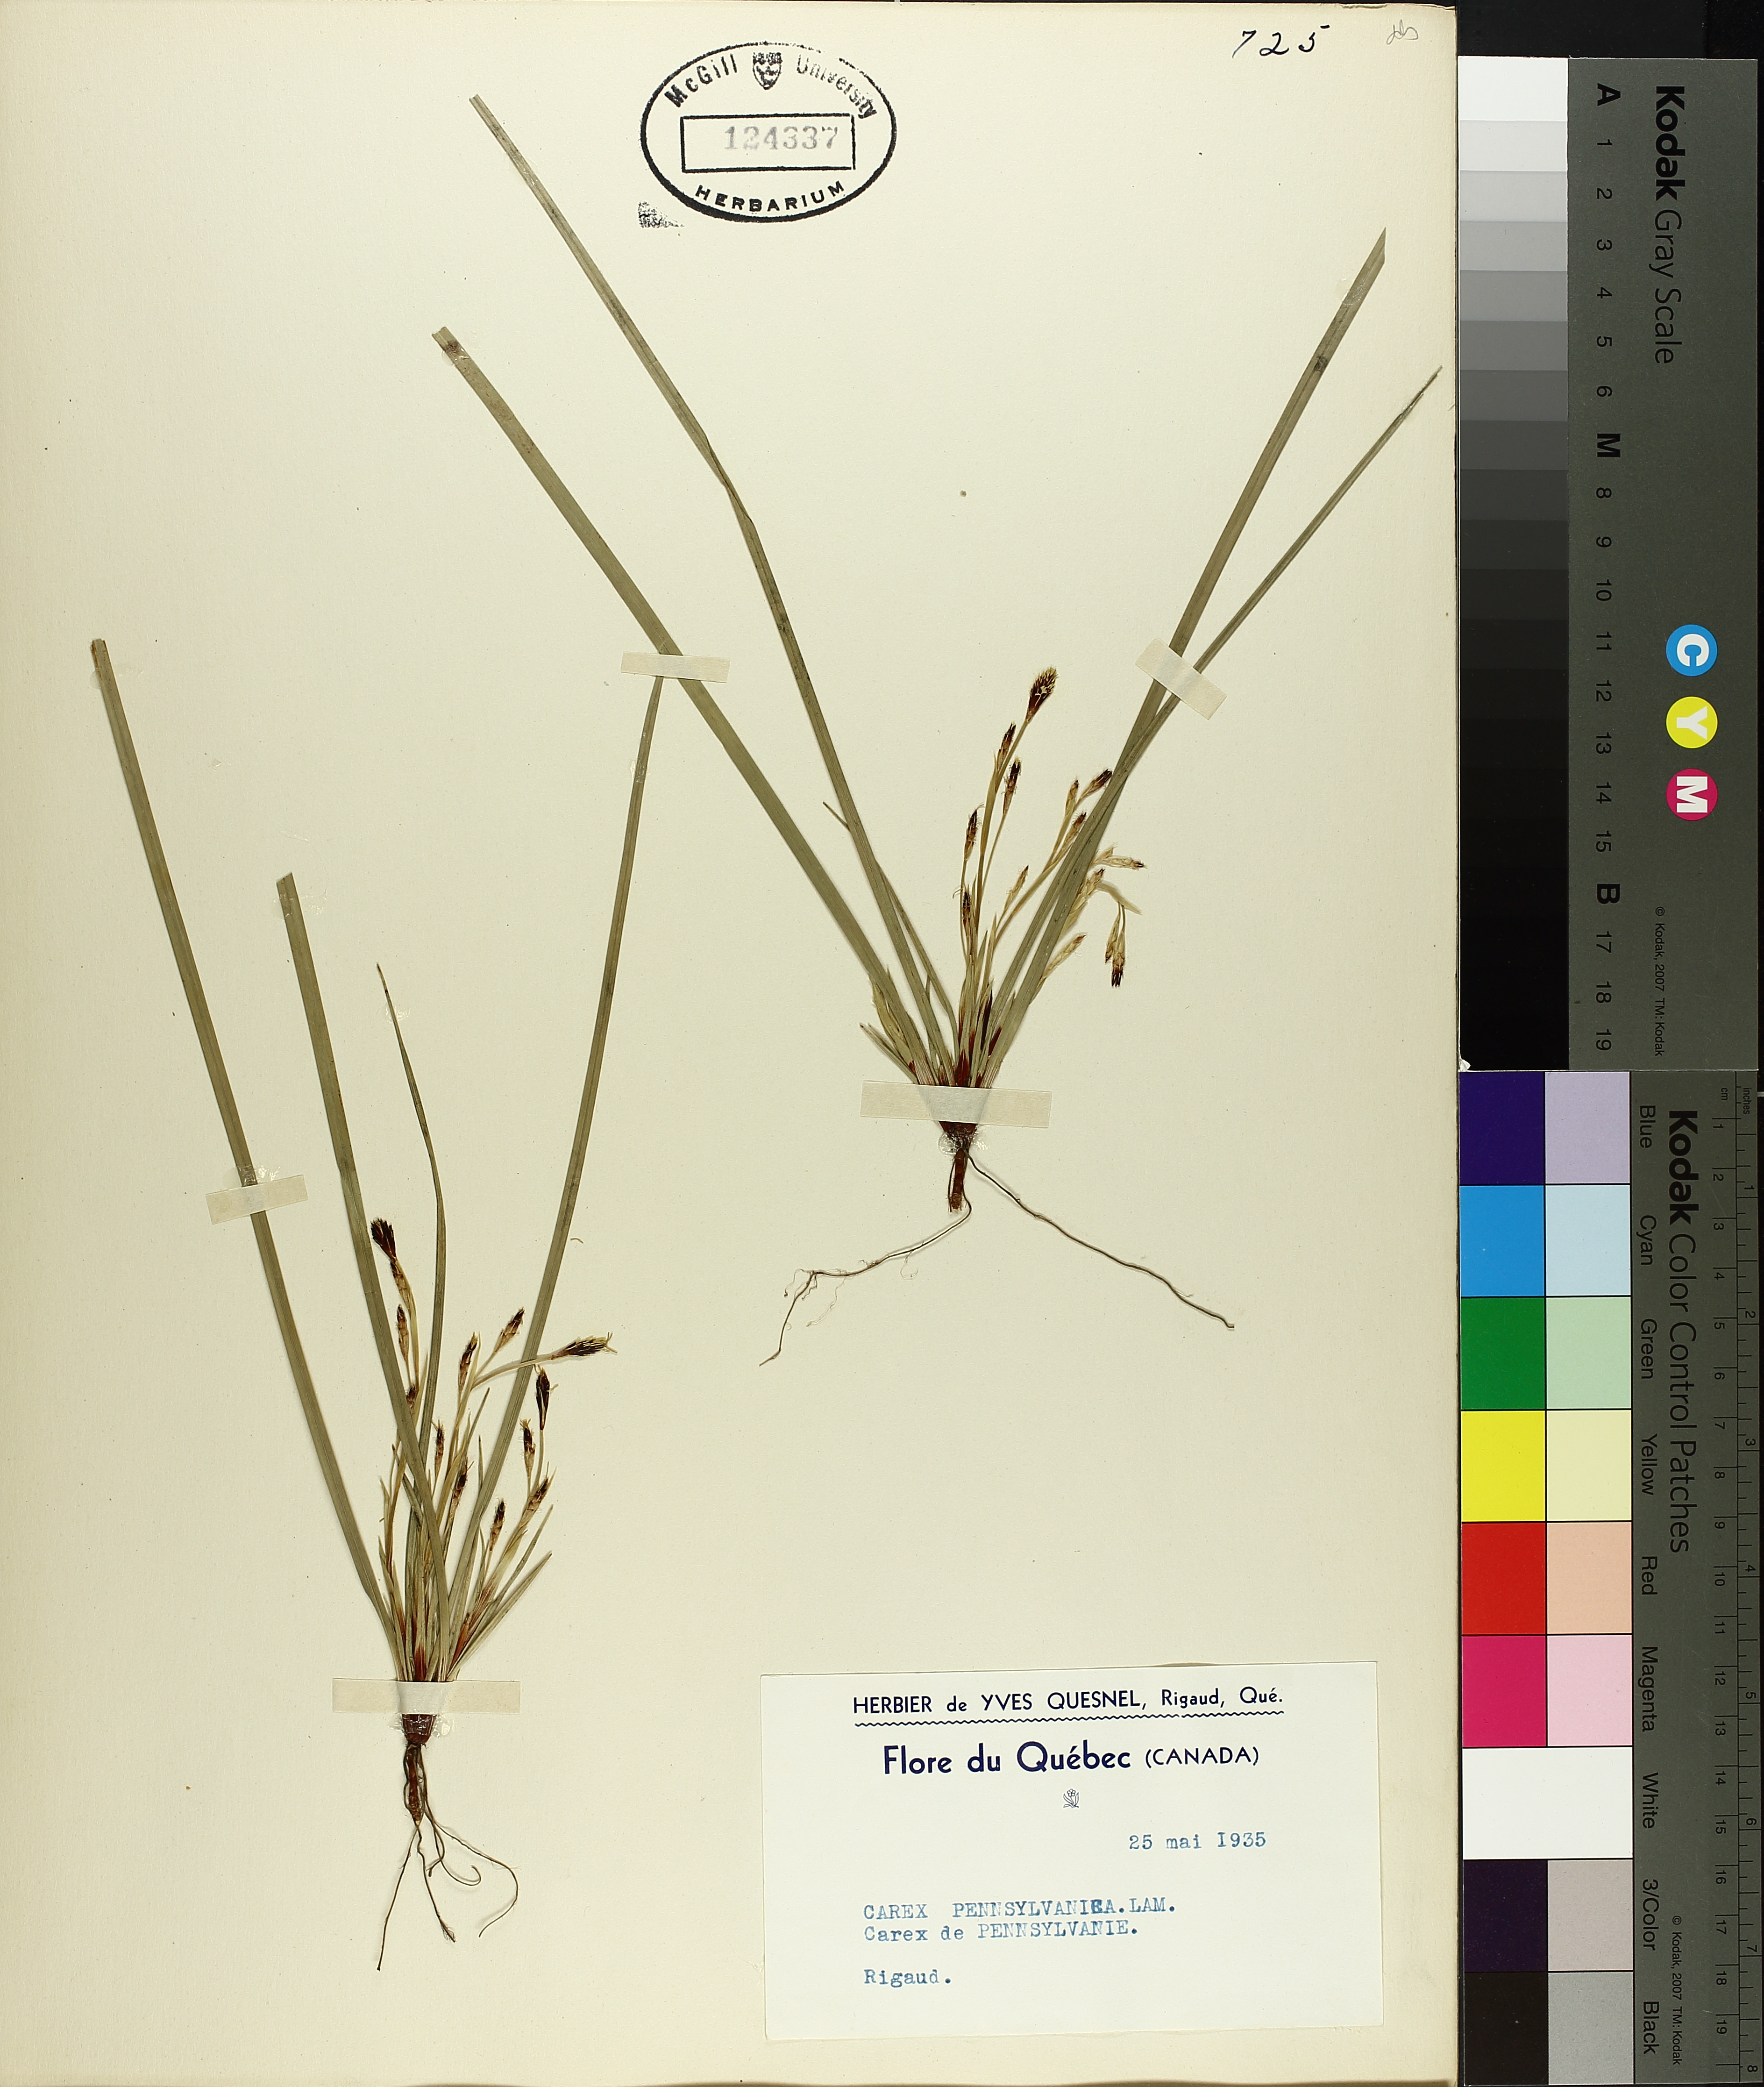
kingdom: Plantae
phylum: Tracheophyta
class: Liliopsida
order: Poales
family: Cyperaceae
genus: Carex
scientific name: Carex pensylvanica
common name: Common oak sedge
